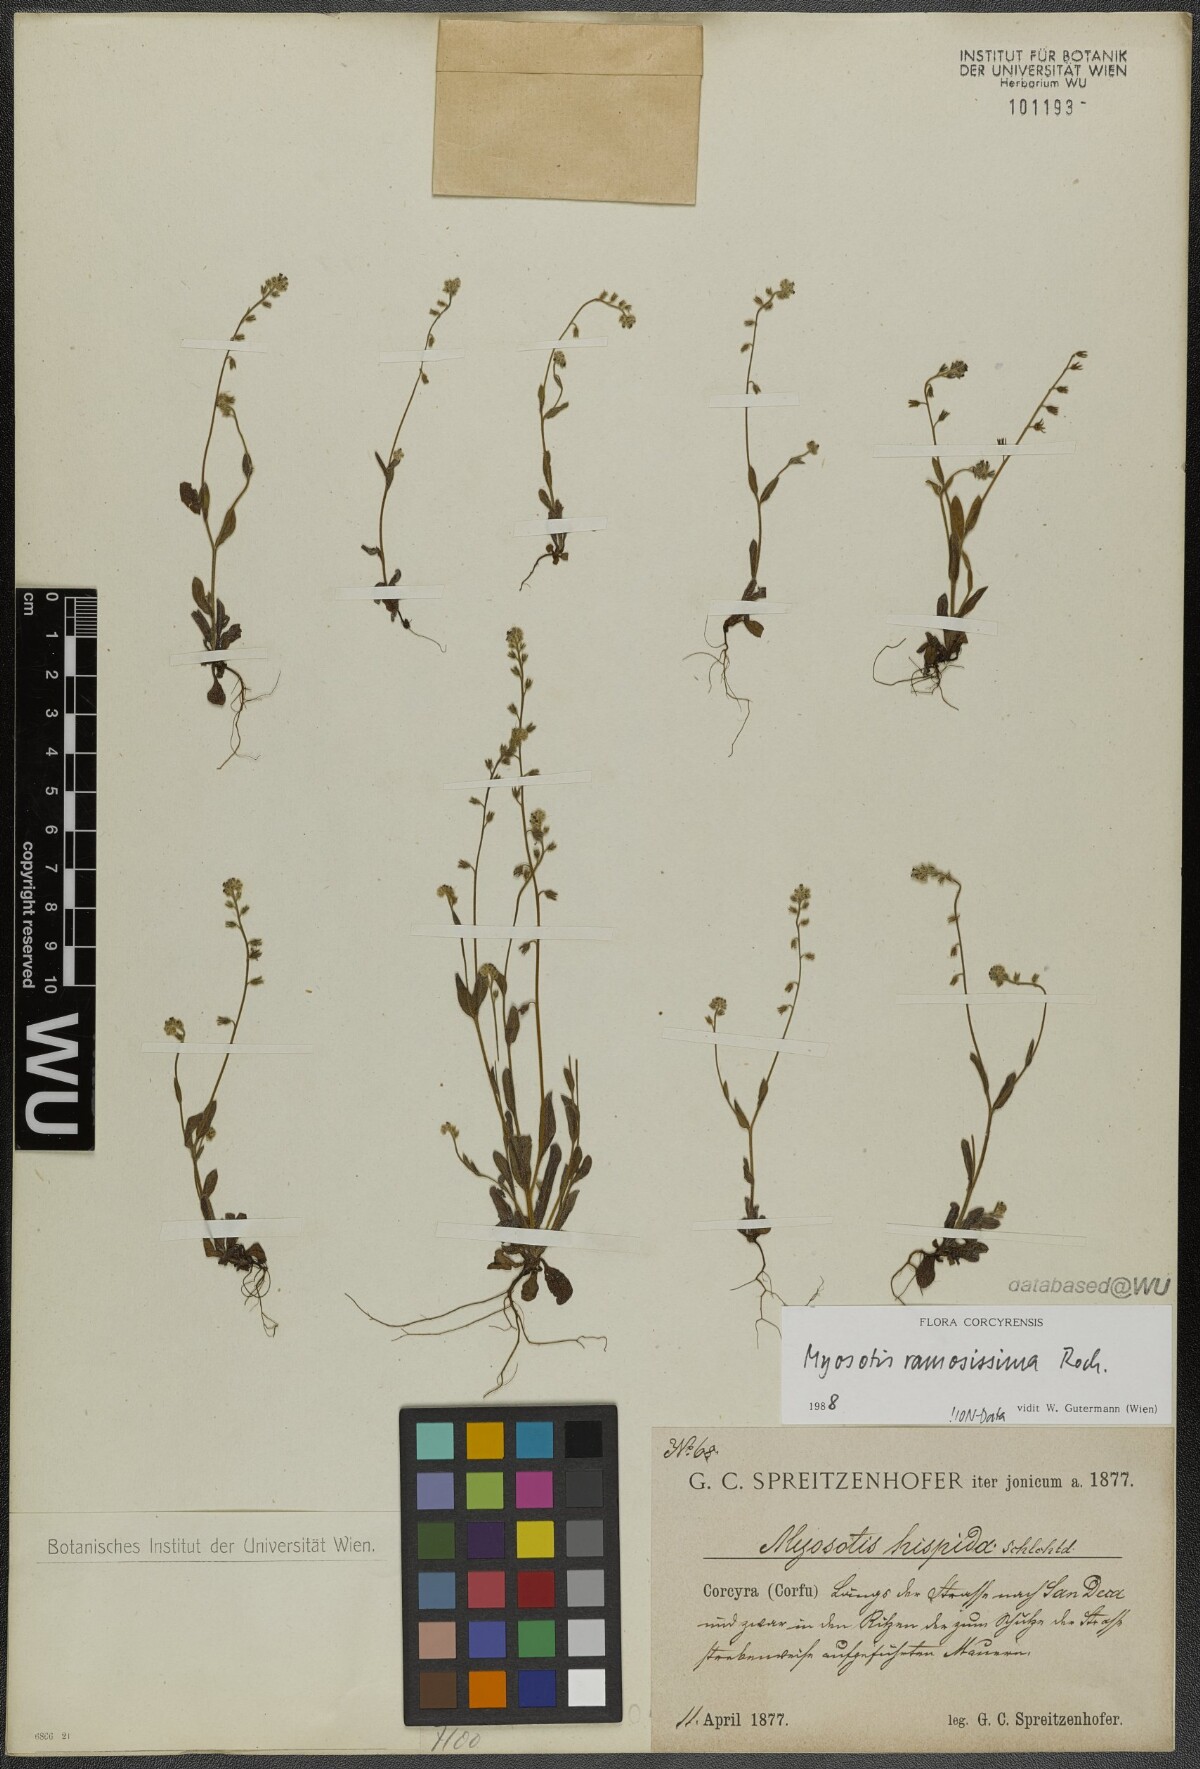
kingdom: Plantae
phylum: Tracheophyta
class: Magnoliopsida
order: Boraginales
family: Boraginaceae
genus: Myosotis
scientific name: Myosotis ramosissima
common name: Early forget-me-not
